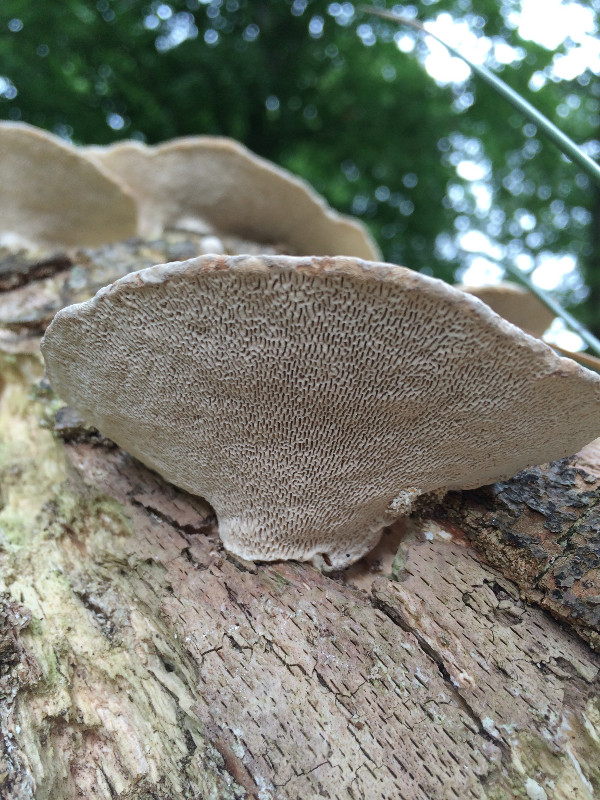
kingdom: Fungi
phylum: Basidiomycota
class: Agaricomycetes
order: Polyporales
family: Polyporaceae
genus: Trametes
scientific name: Trametes gibbosa
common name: puklet læderporesvamp
